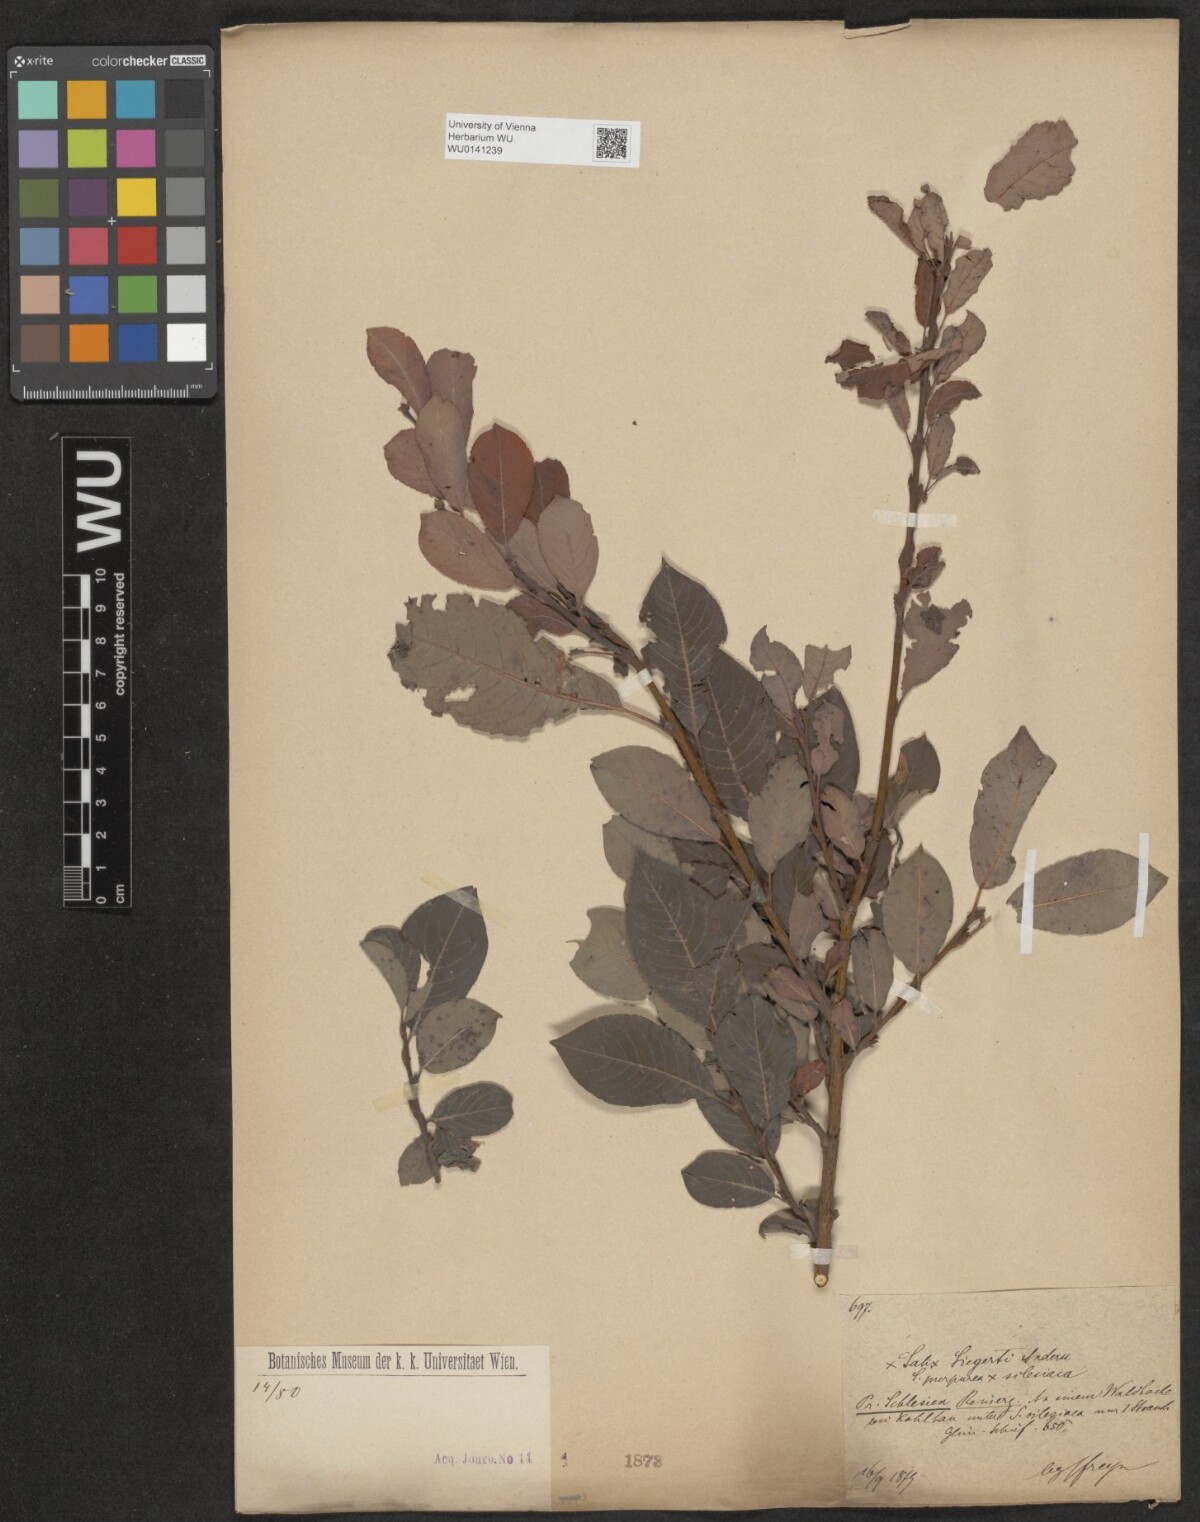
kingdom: Plantae
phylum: Tracheophyta
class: Magnoliopsida
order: Malpighiales
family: Salicaceae
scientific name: Salicaceae
